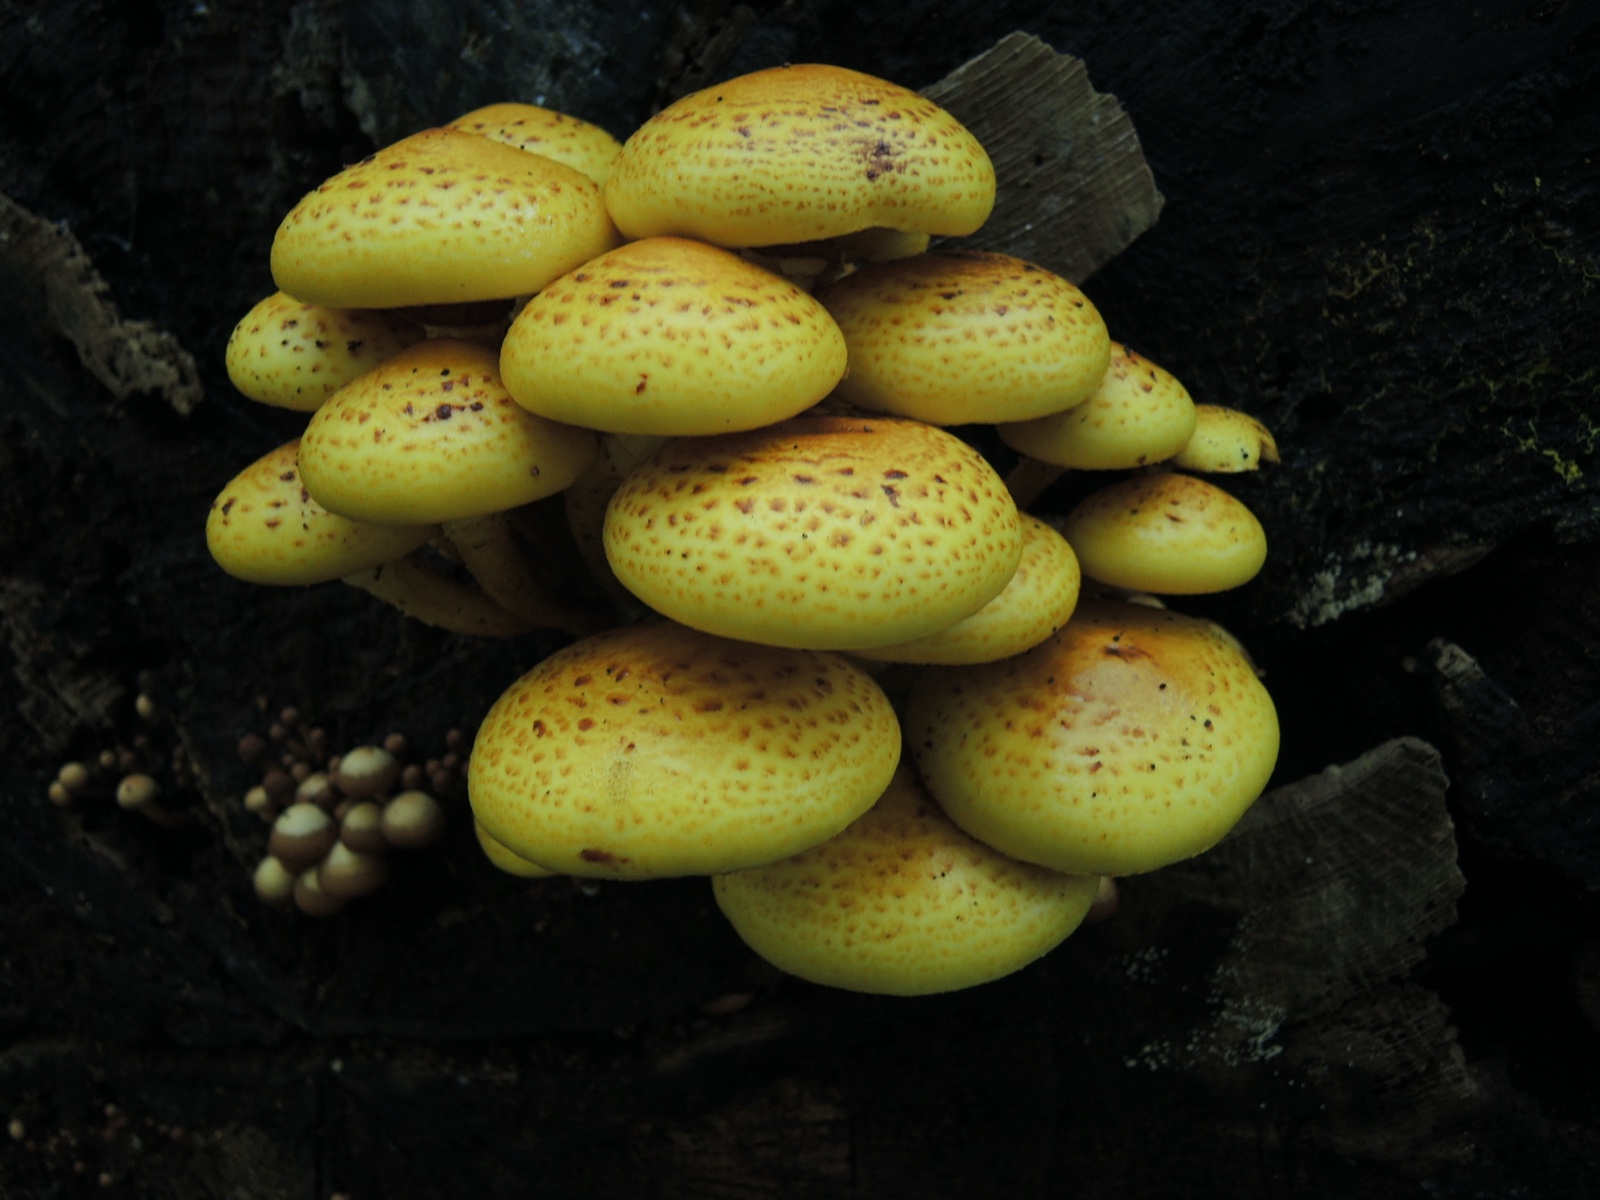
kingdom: Fungi
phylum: Basidiomycota
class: Agaricomycetes
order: Agaricales
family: Strophariaceae
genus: Pholiota
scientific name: Pholiota adiposa
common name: højtsiddende skælhat
